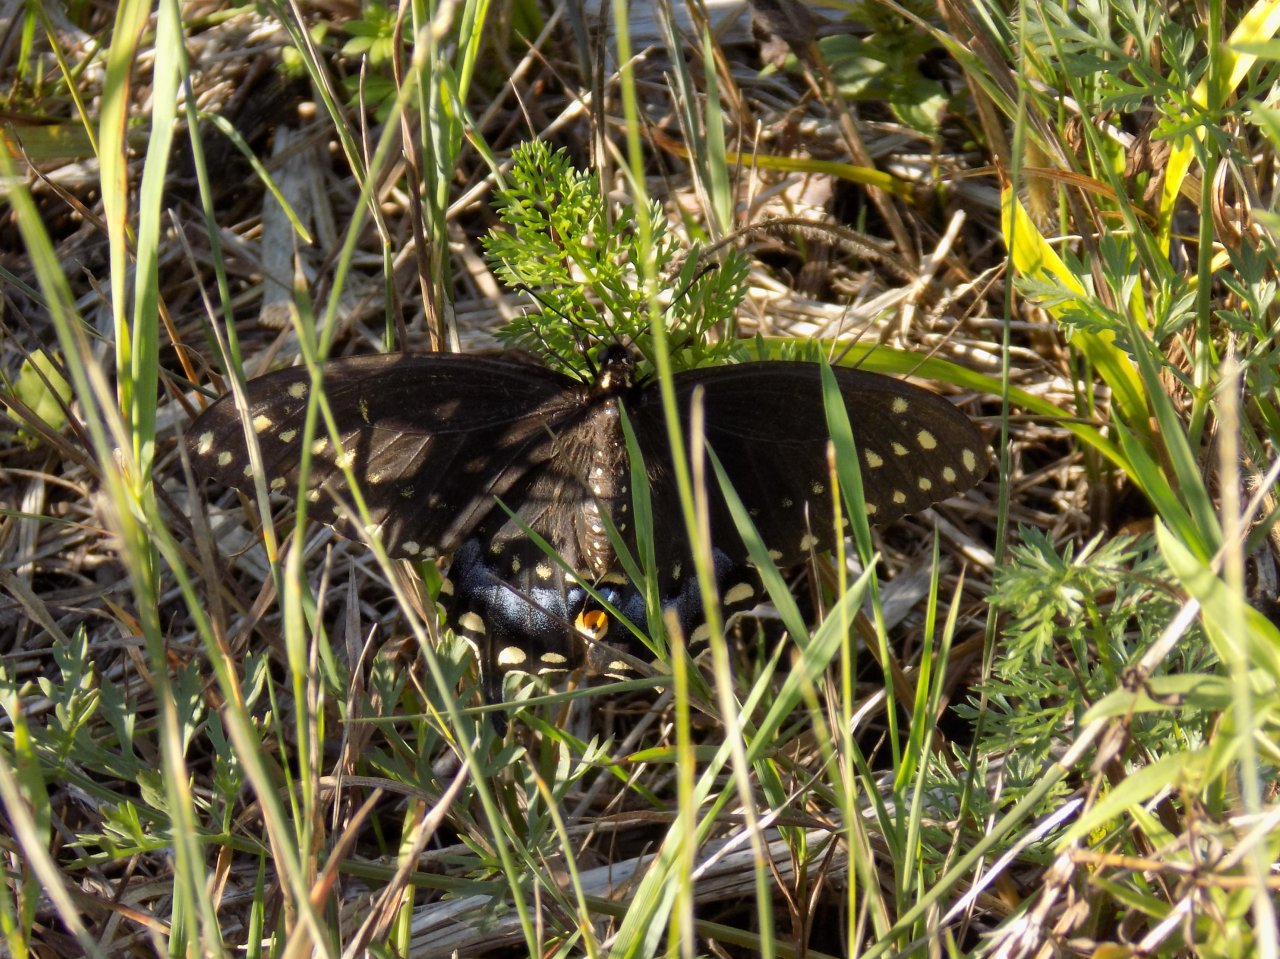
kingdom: Animalia
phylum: Arthropoda
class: Insecta
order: Lepidoptera
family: Papilionidae
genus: Papilio
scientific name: Papilio polyxenes
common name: Black Swallowtail
